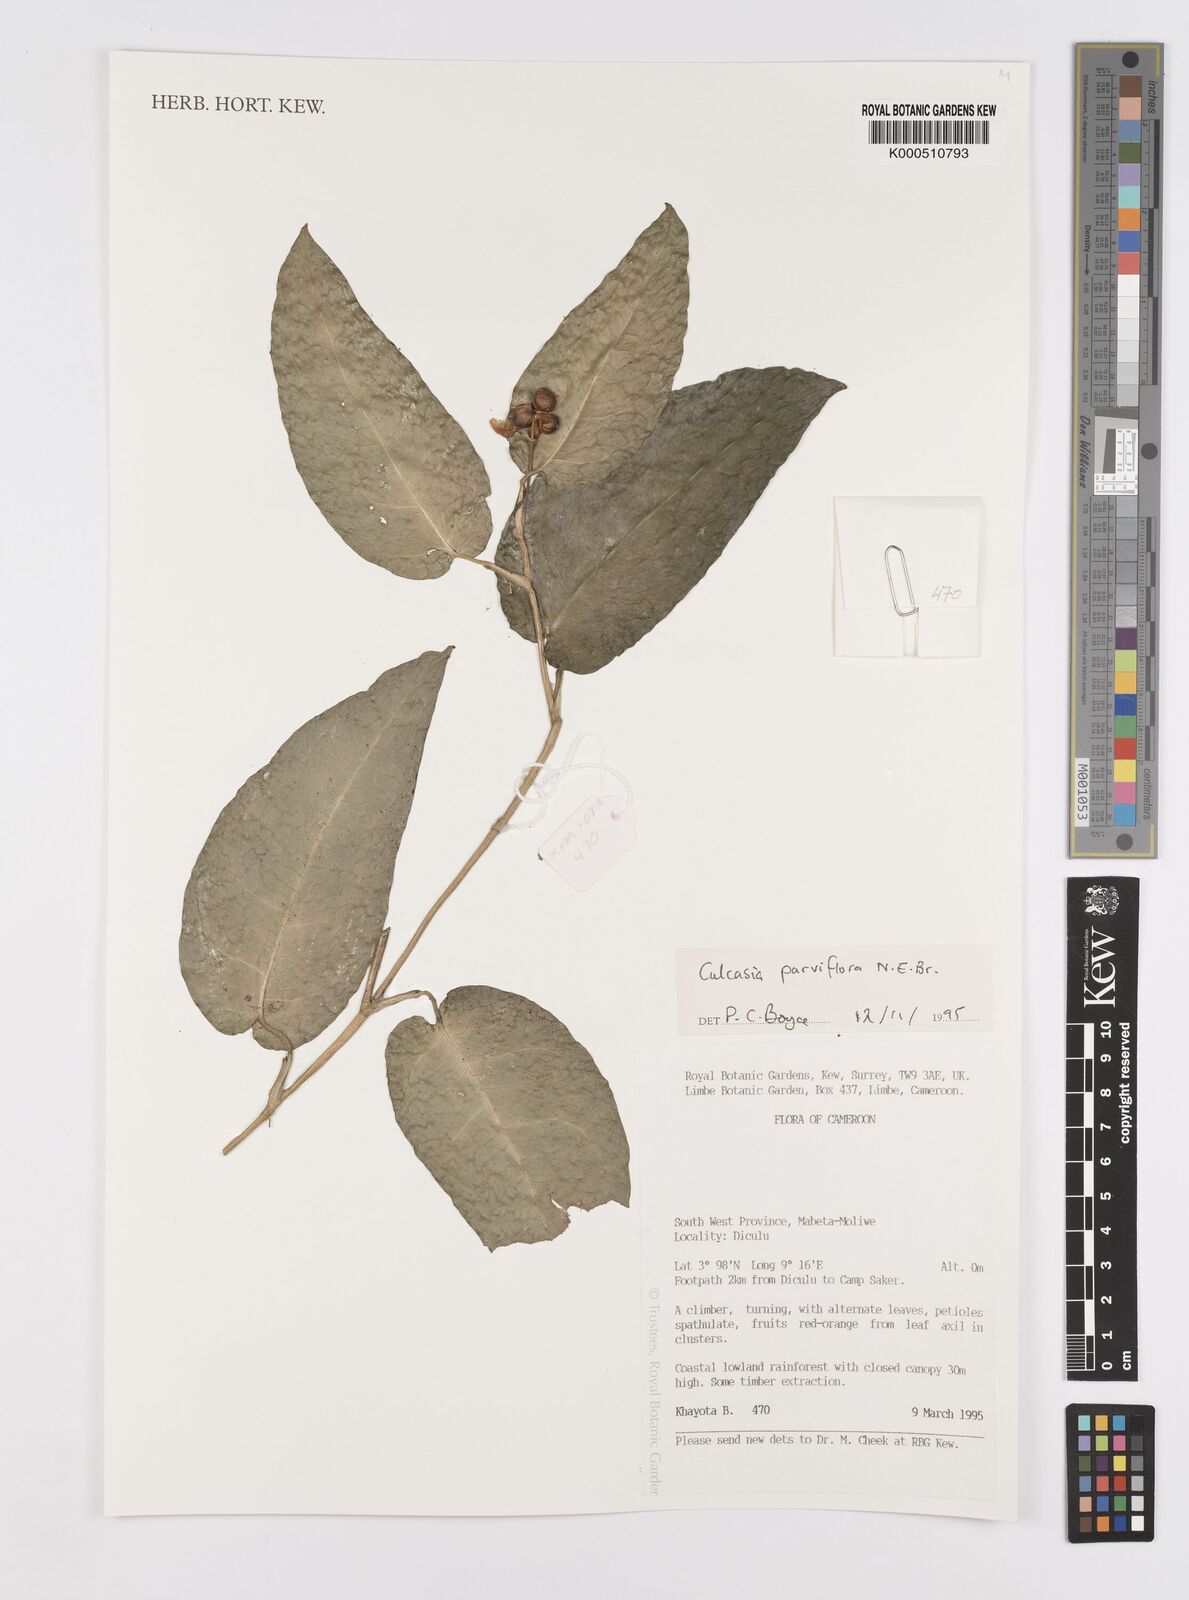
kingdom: Plantae
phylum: Tracheophyta
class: Liliopsida
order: Alismatales
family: Araceae
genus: Culcasia
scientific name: Culcasia parviflora
